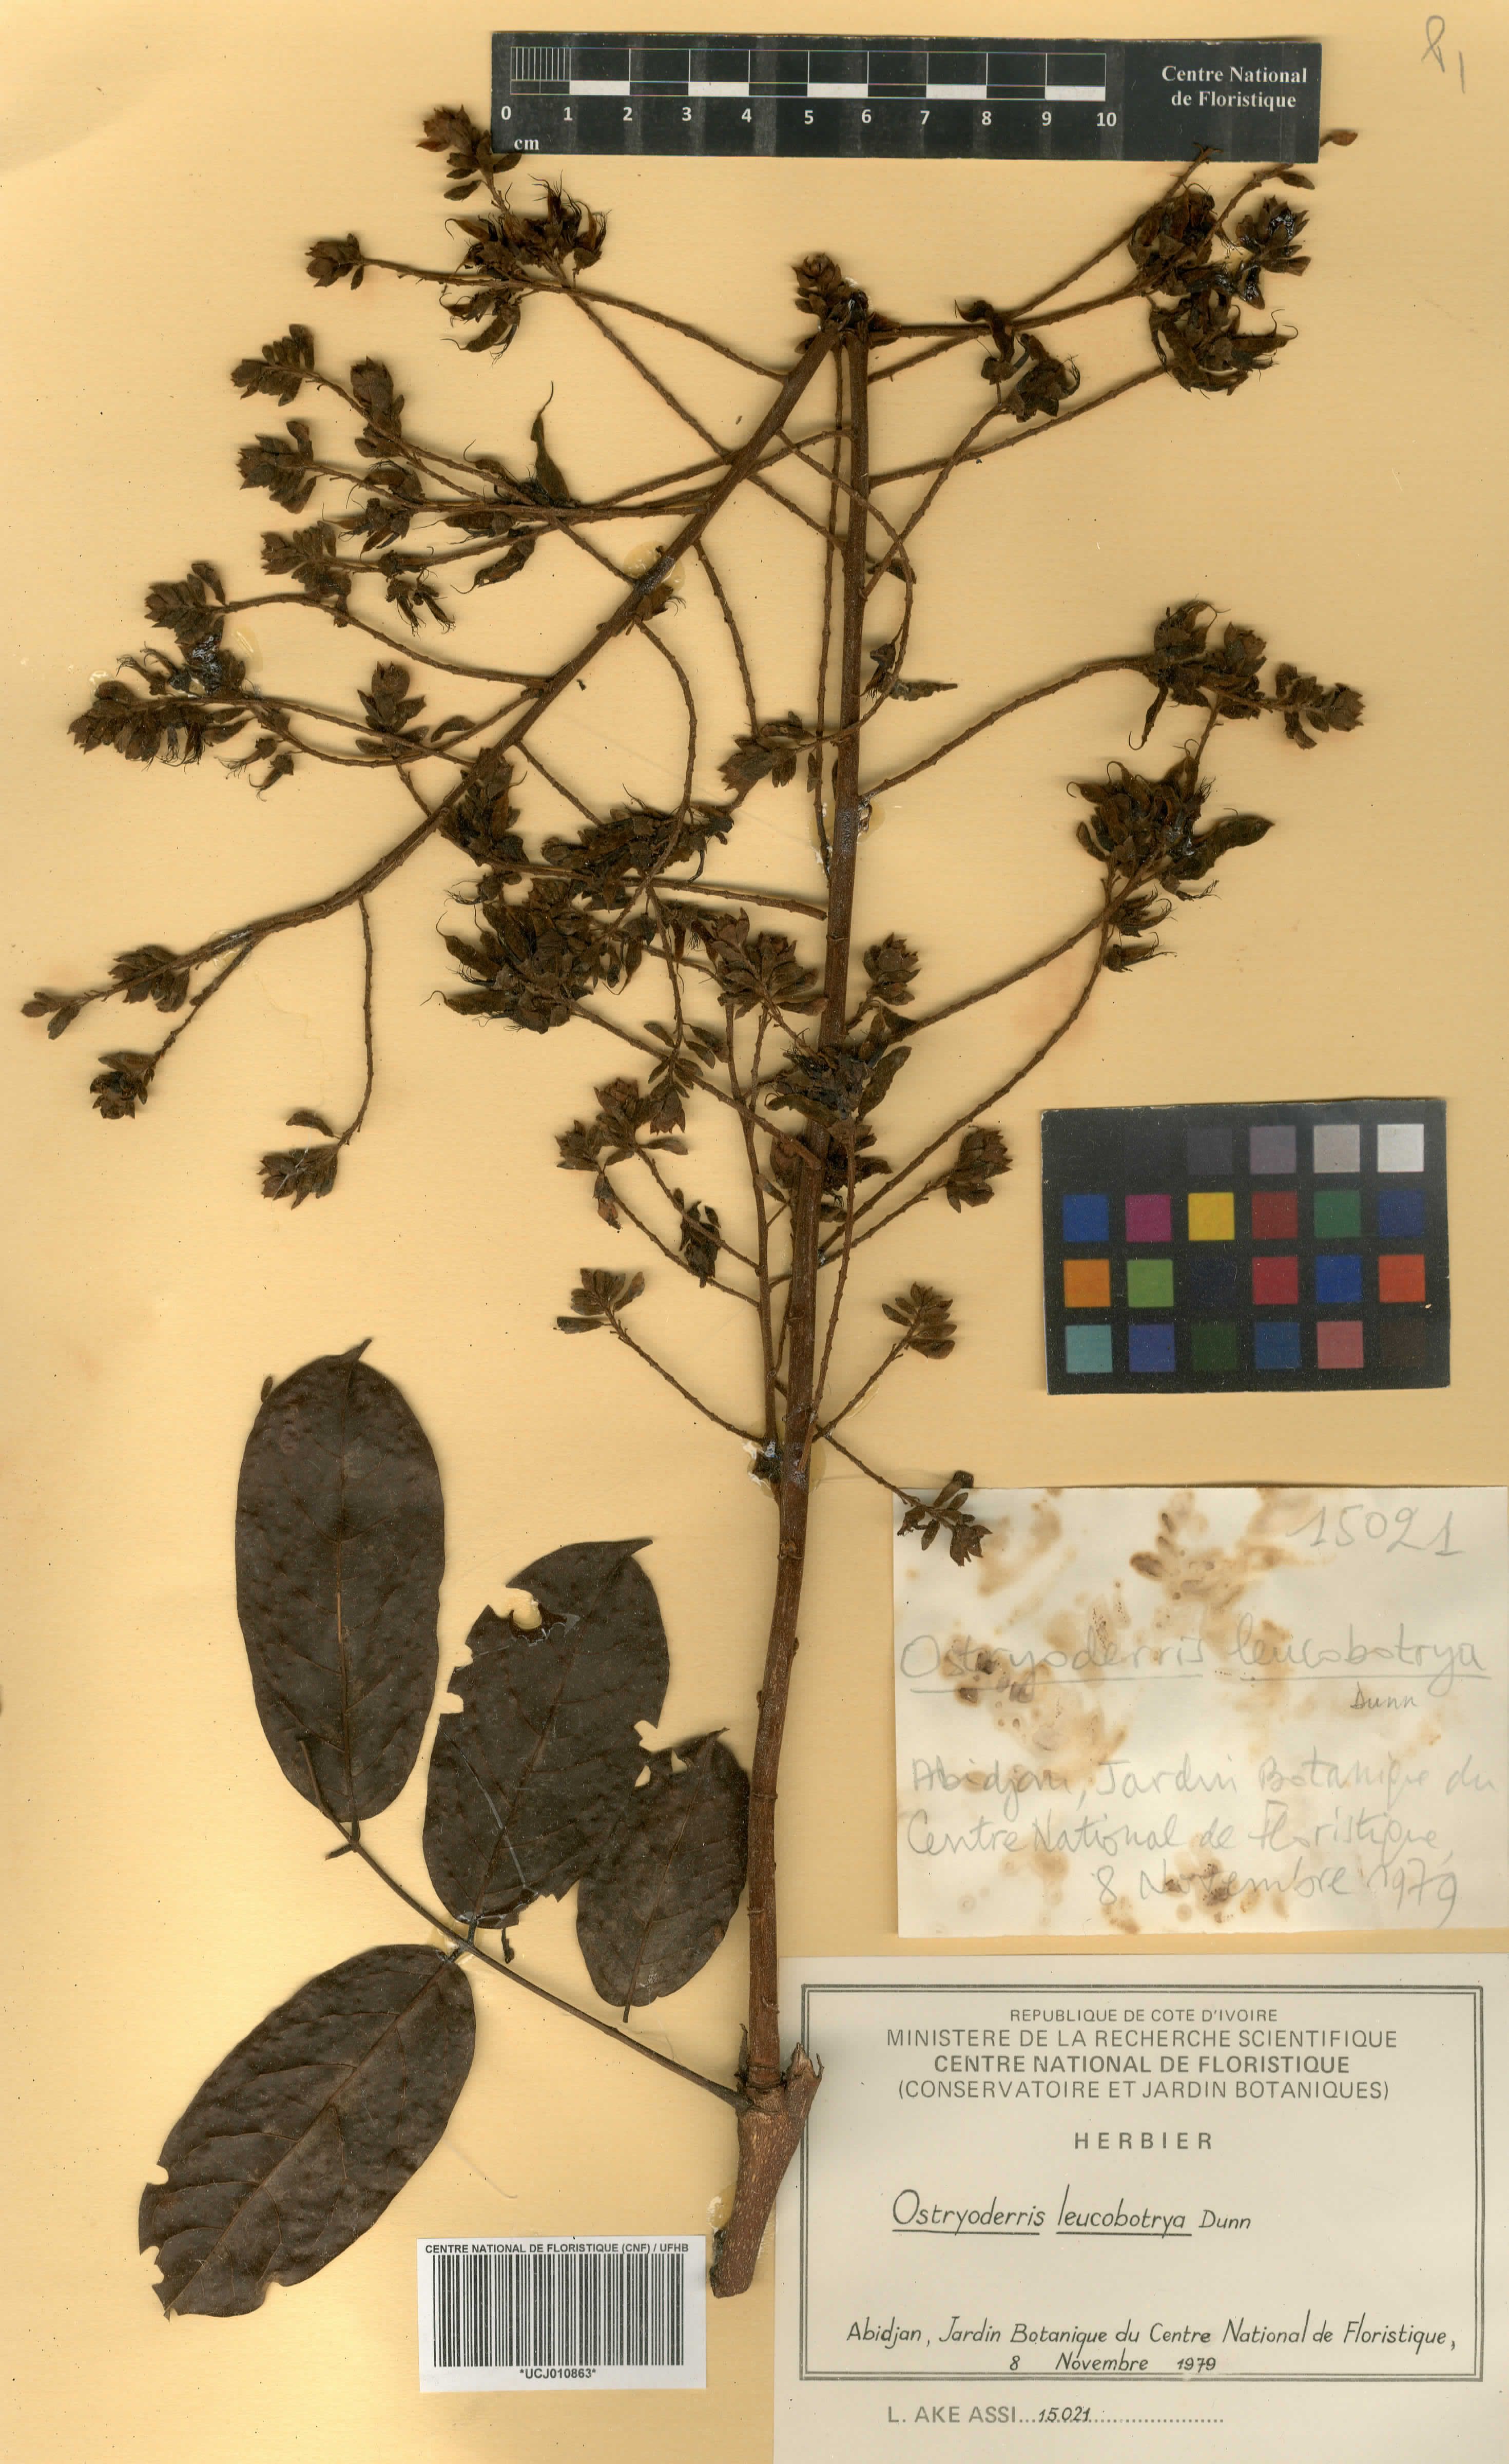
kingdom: Plantae
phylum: Tracheophyta
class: Magnoliopsida
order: Fabales
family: Fabaceae
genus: Aganope
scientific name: Aganope leucobotrya
